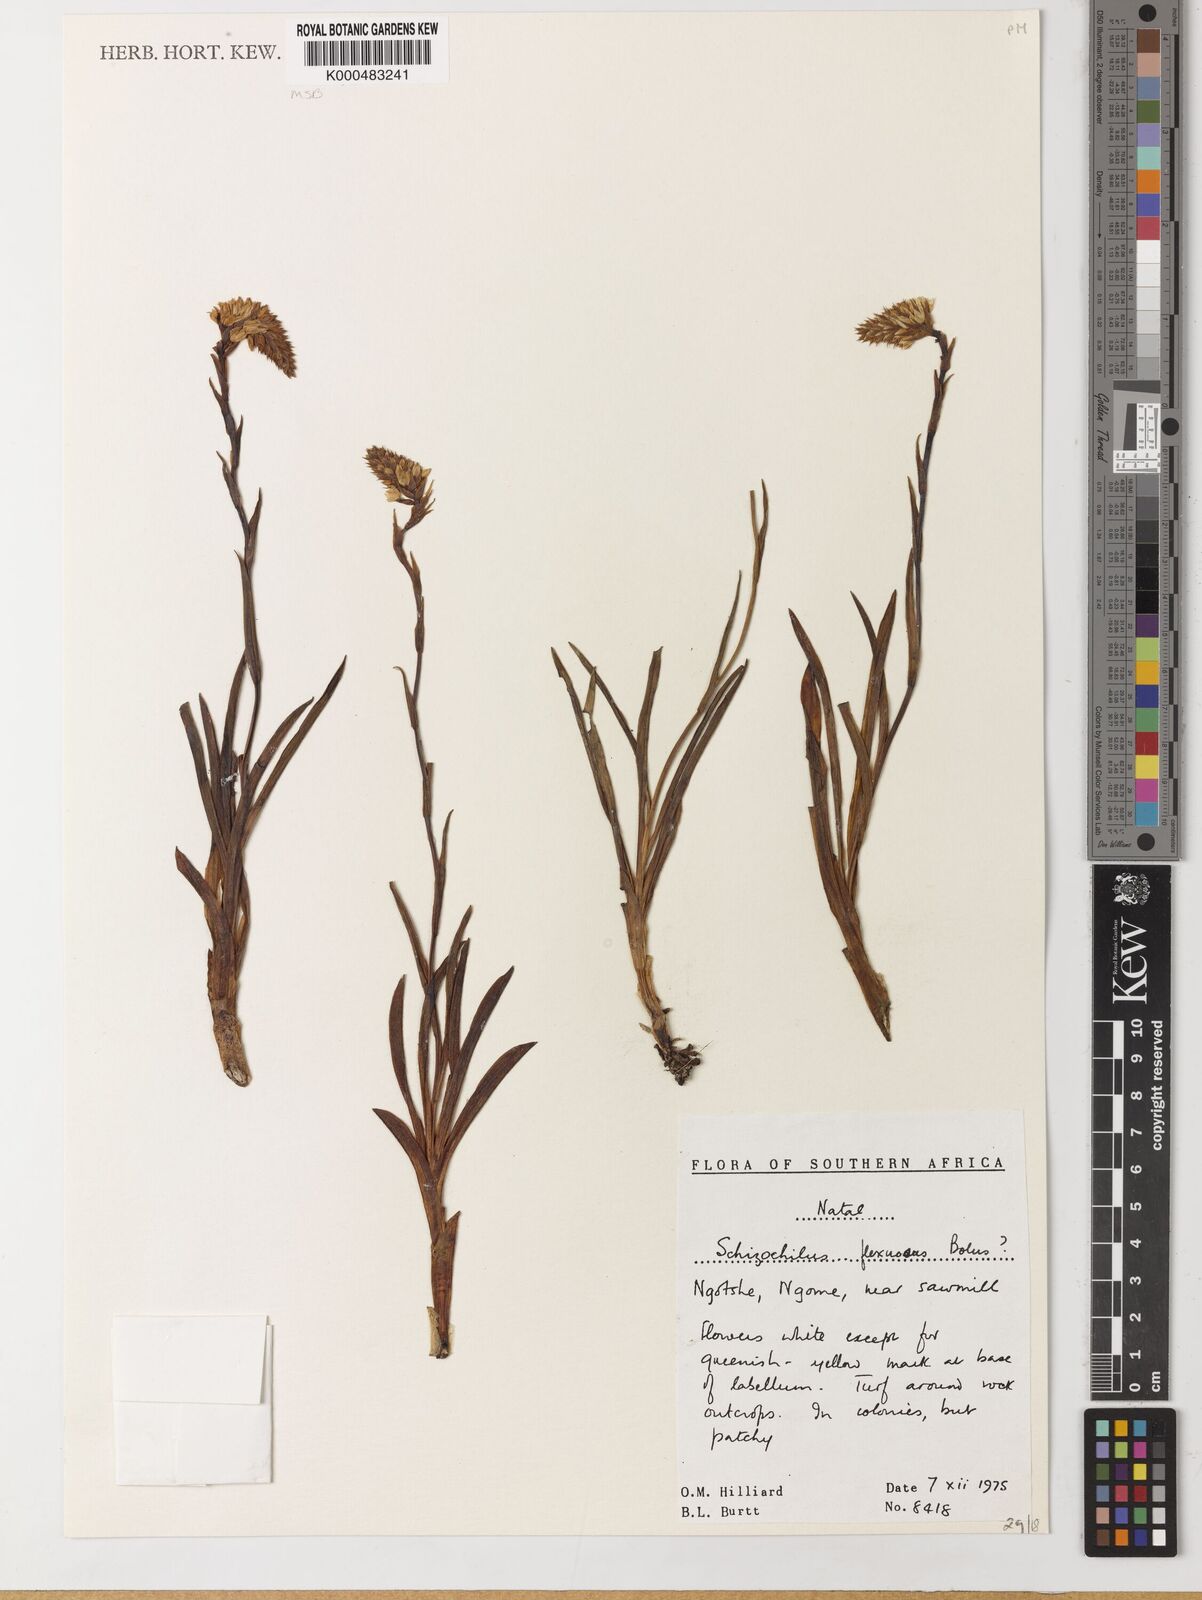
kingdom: Plantae
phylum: Tracheophyta
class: Liliopsida
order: Asparagales
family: Orchidaceae
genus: Schizochilus
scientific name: Schizochilus gerrardii
